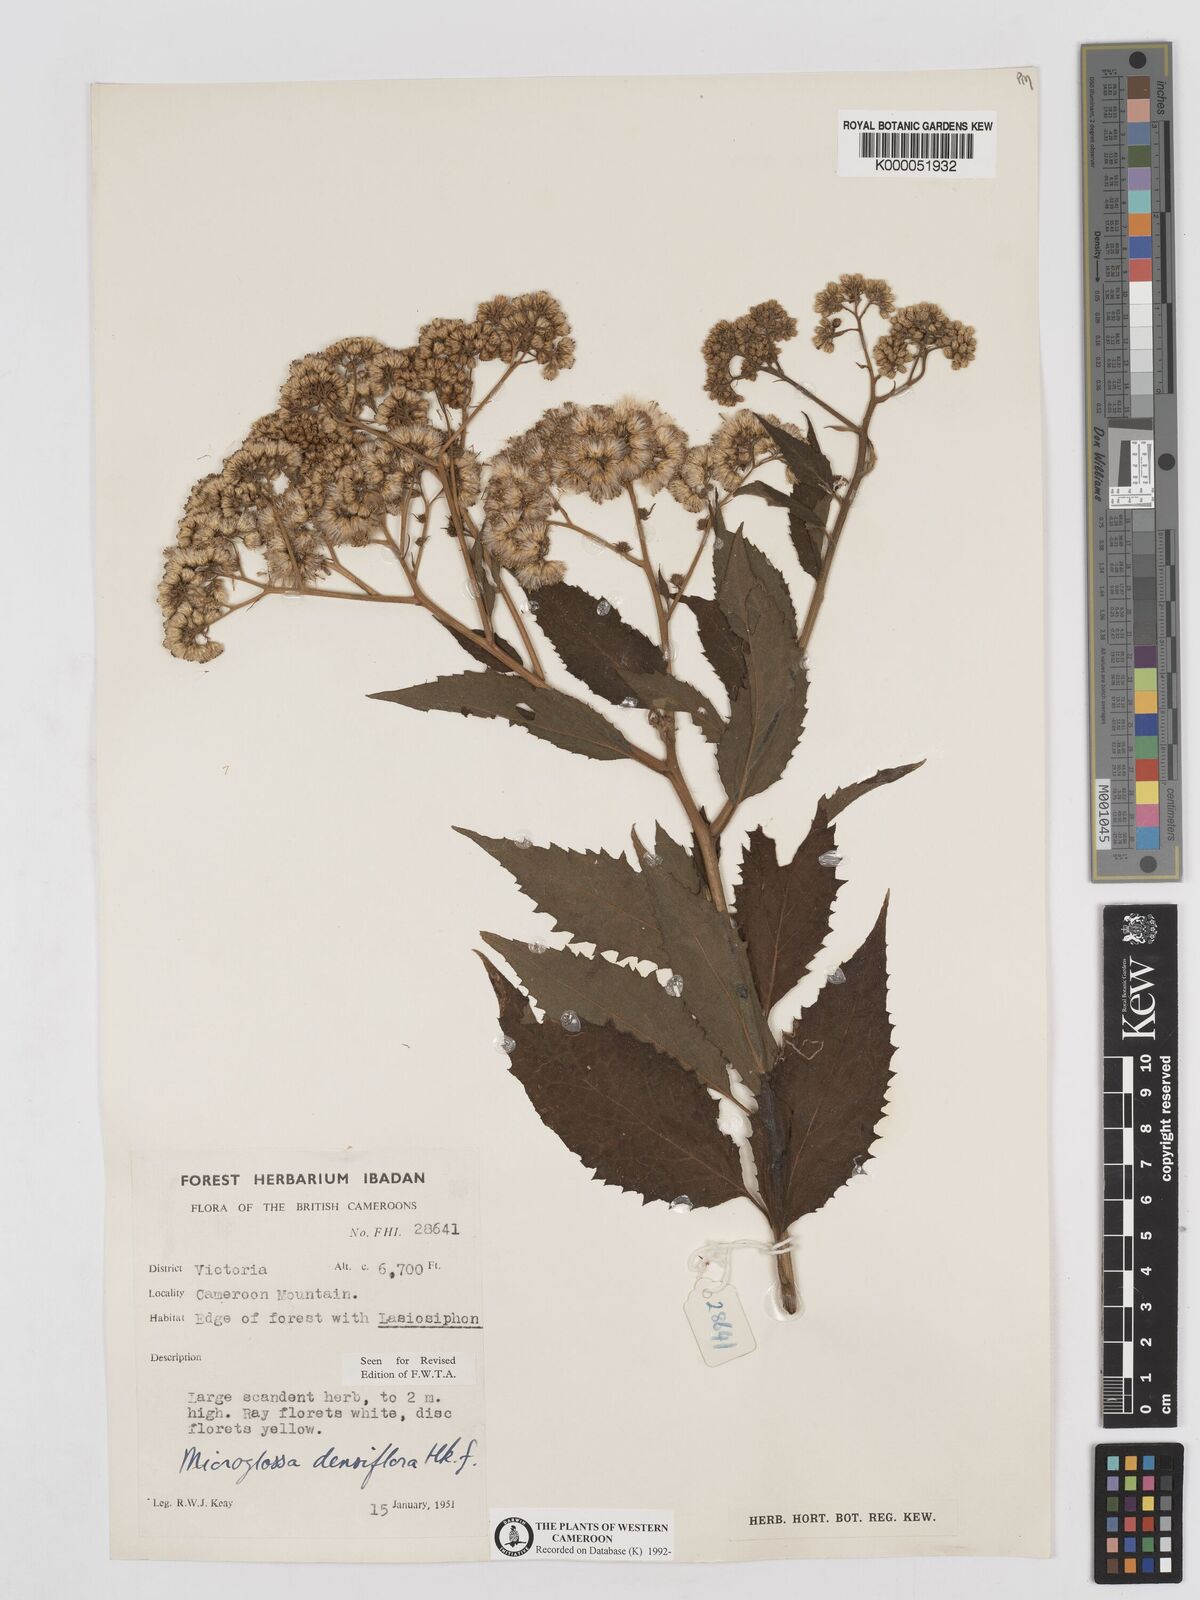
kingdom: Plantae
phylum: Tracheophyta
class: Magnoliopsida
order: Asterales
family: Asteraceae
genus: Microglossa
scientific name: Microglossa densiflora
